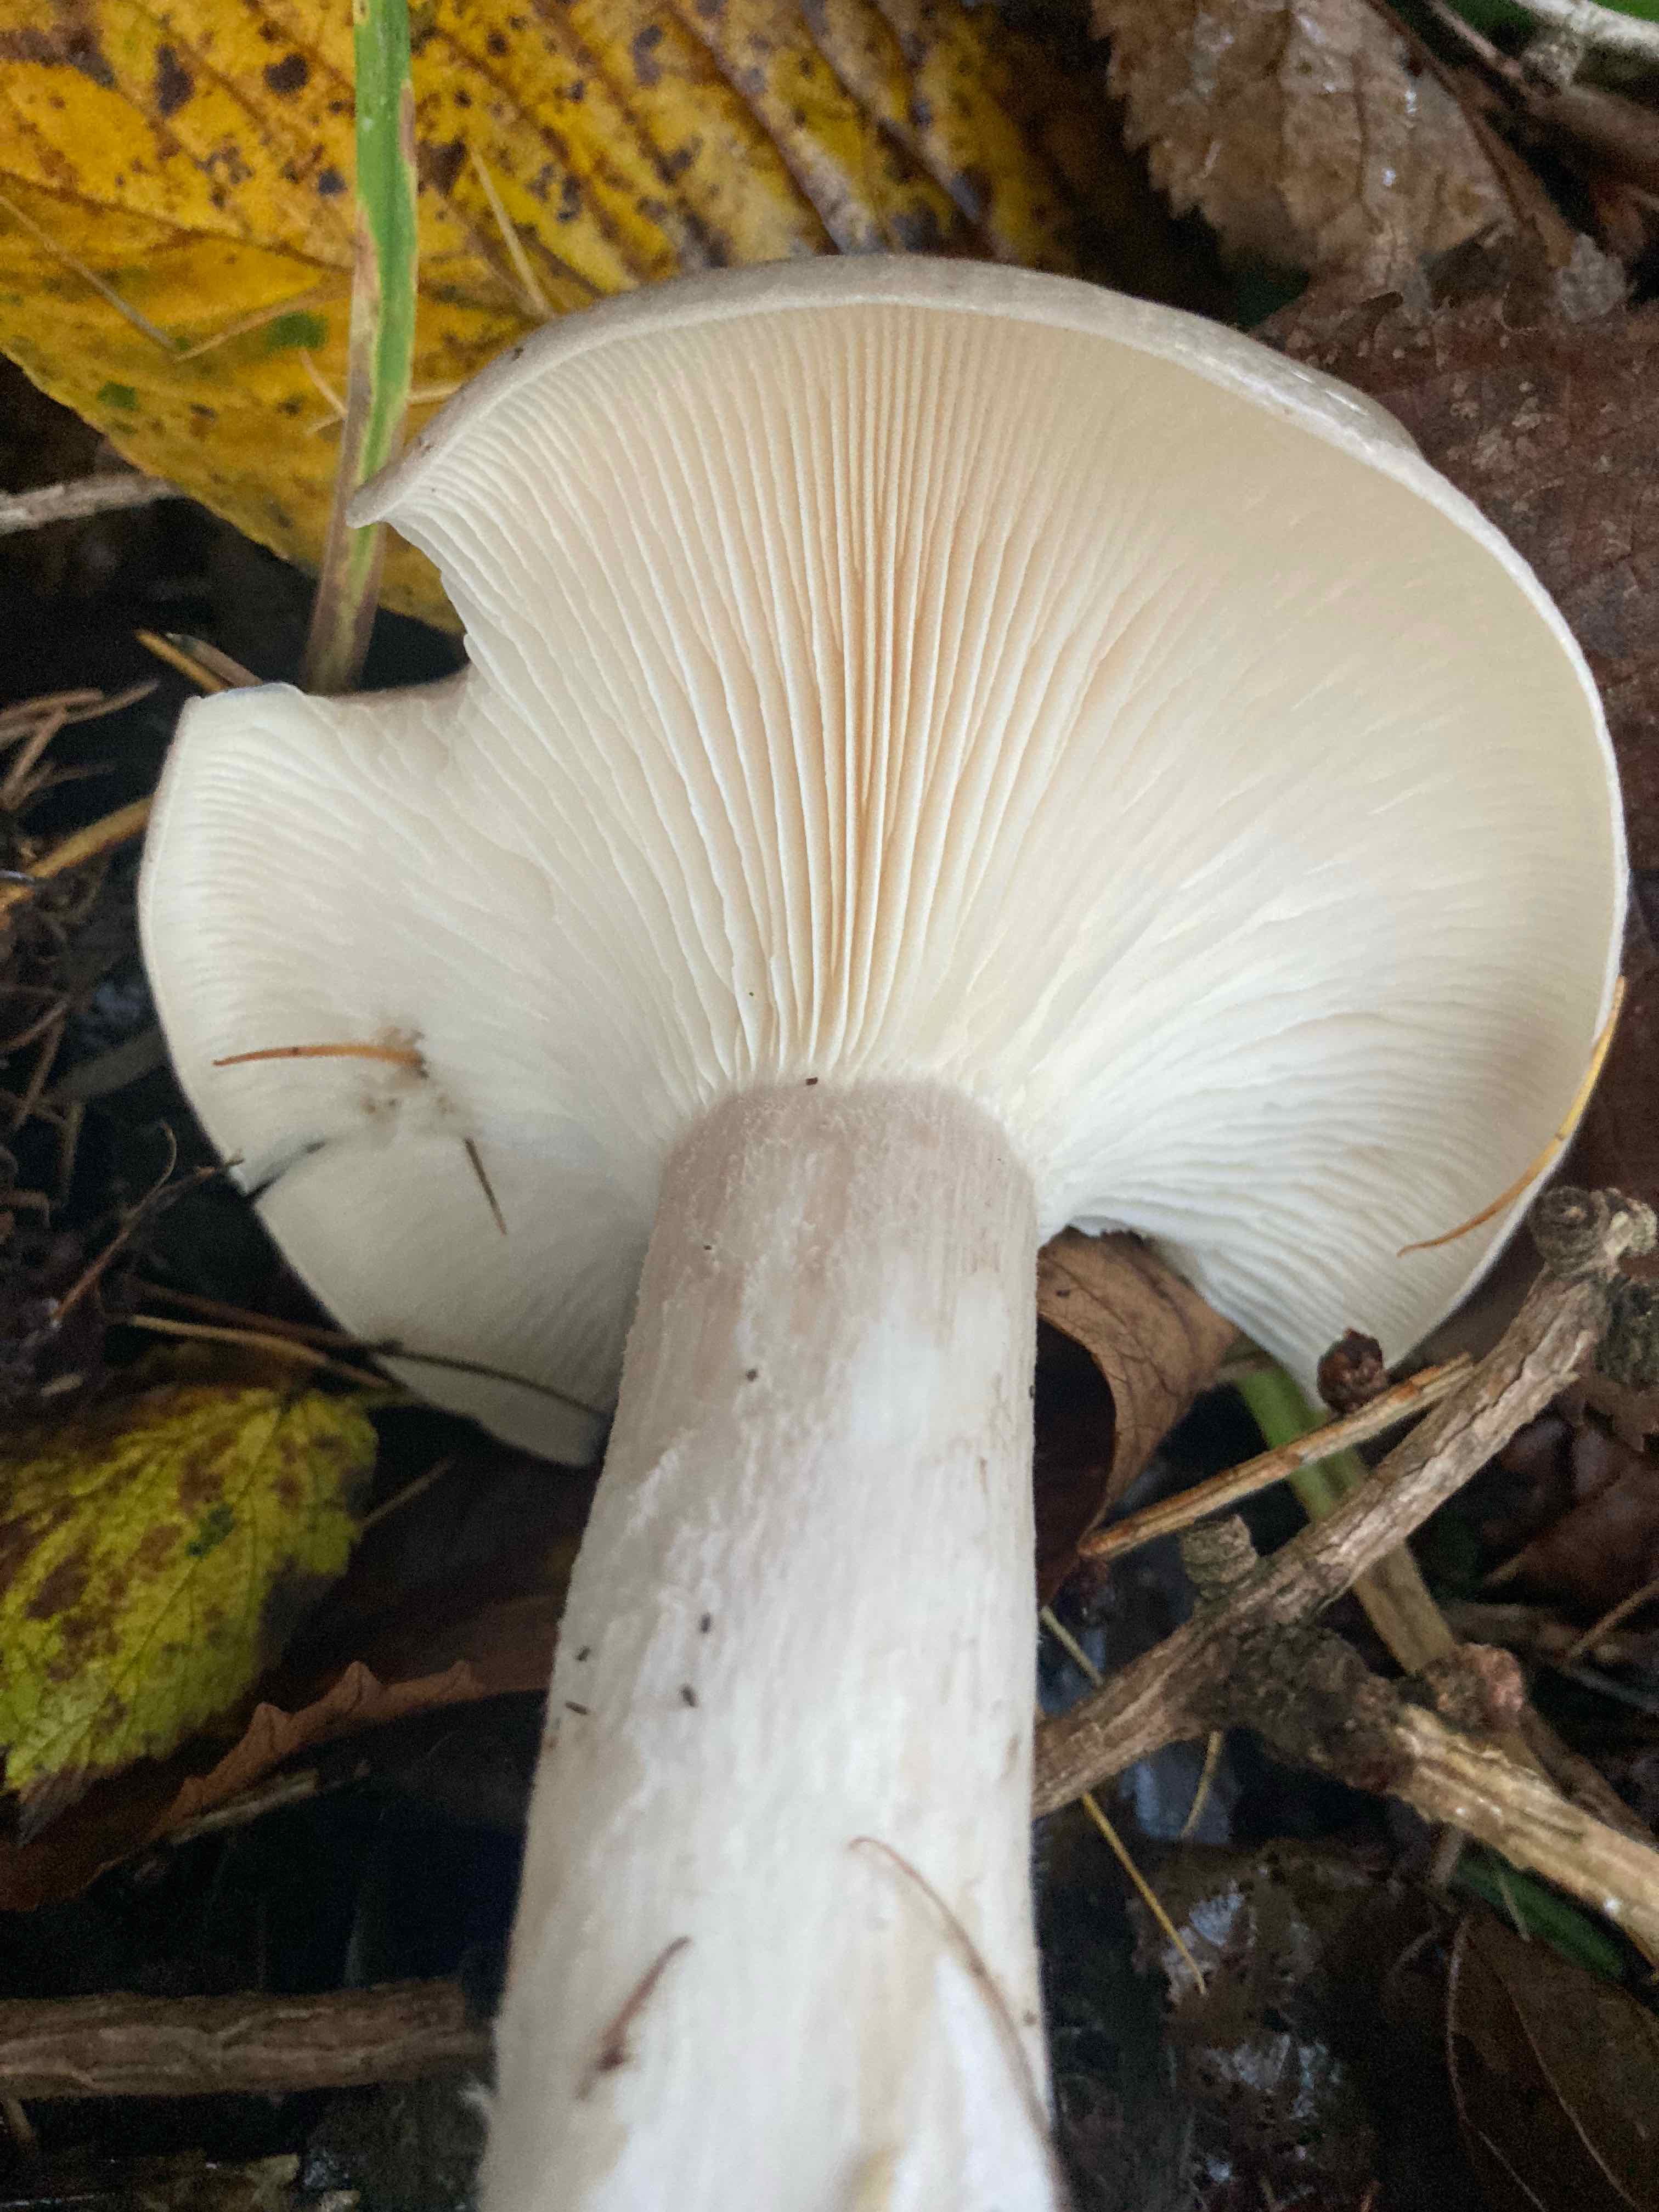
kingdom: Fungi
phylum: Basidiomycota
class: Agaricomycetes
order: Agaricales
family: Tricholomataceae
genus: Clitocybe
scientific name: Clitocybe nebularis
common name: tåge-tragthat
